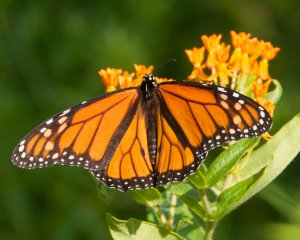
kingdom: Animalia
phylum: Arthropoda
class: Insecta
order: Lepidoptera
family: Nymphalidae
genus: Danaus
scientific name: Danaus plexippus
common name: Monarch
